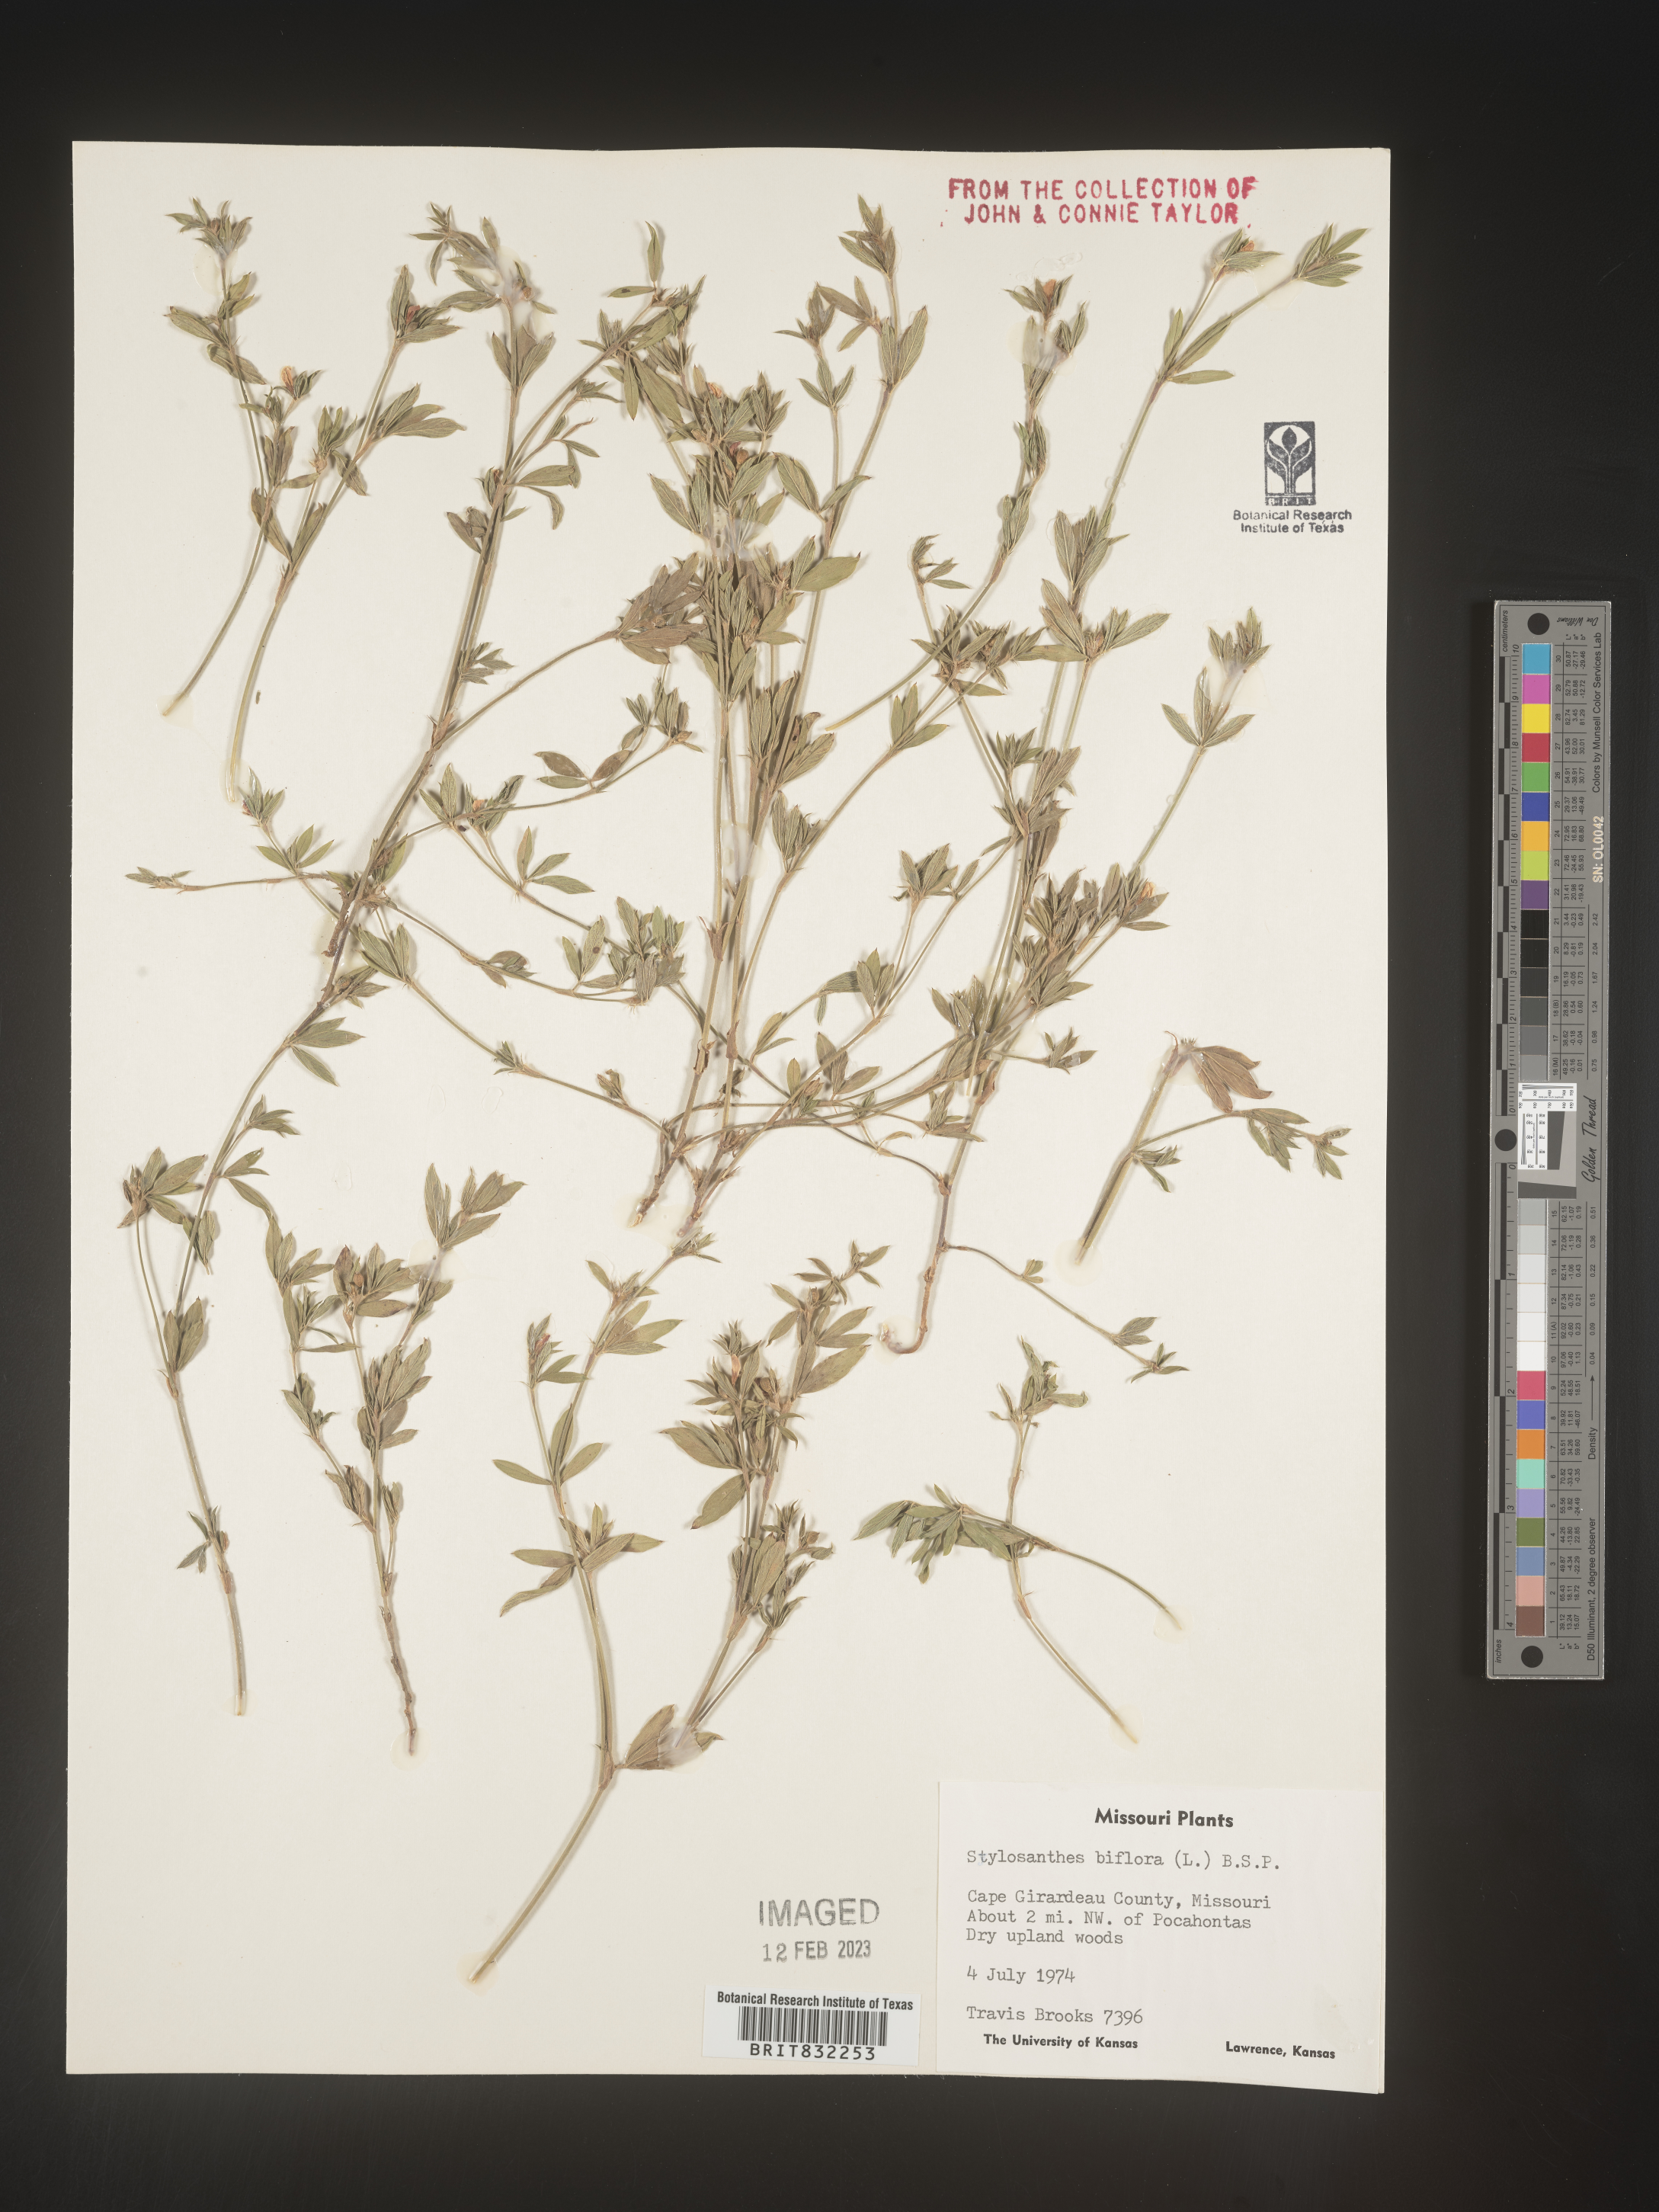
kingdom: Plantae
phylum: Tracheophyta
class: Magnoliopsida
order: Fabales
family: Fabaceae
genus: Stylosanthes
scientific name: Stylosanthes biflora
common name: Two-flower pencil-flower
